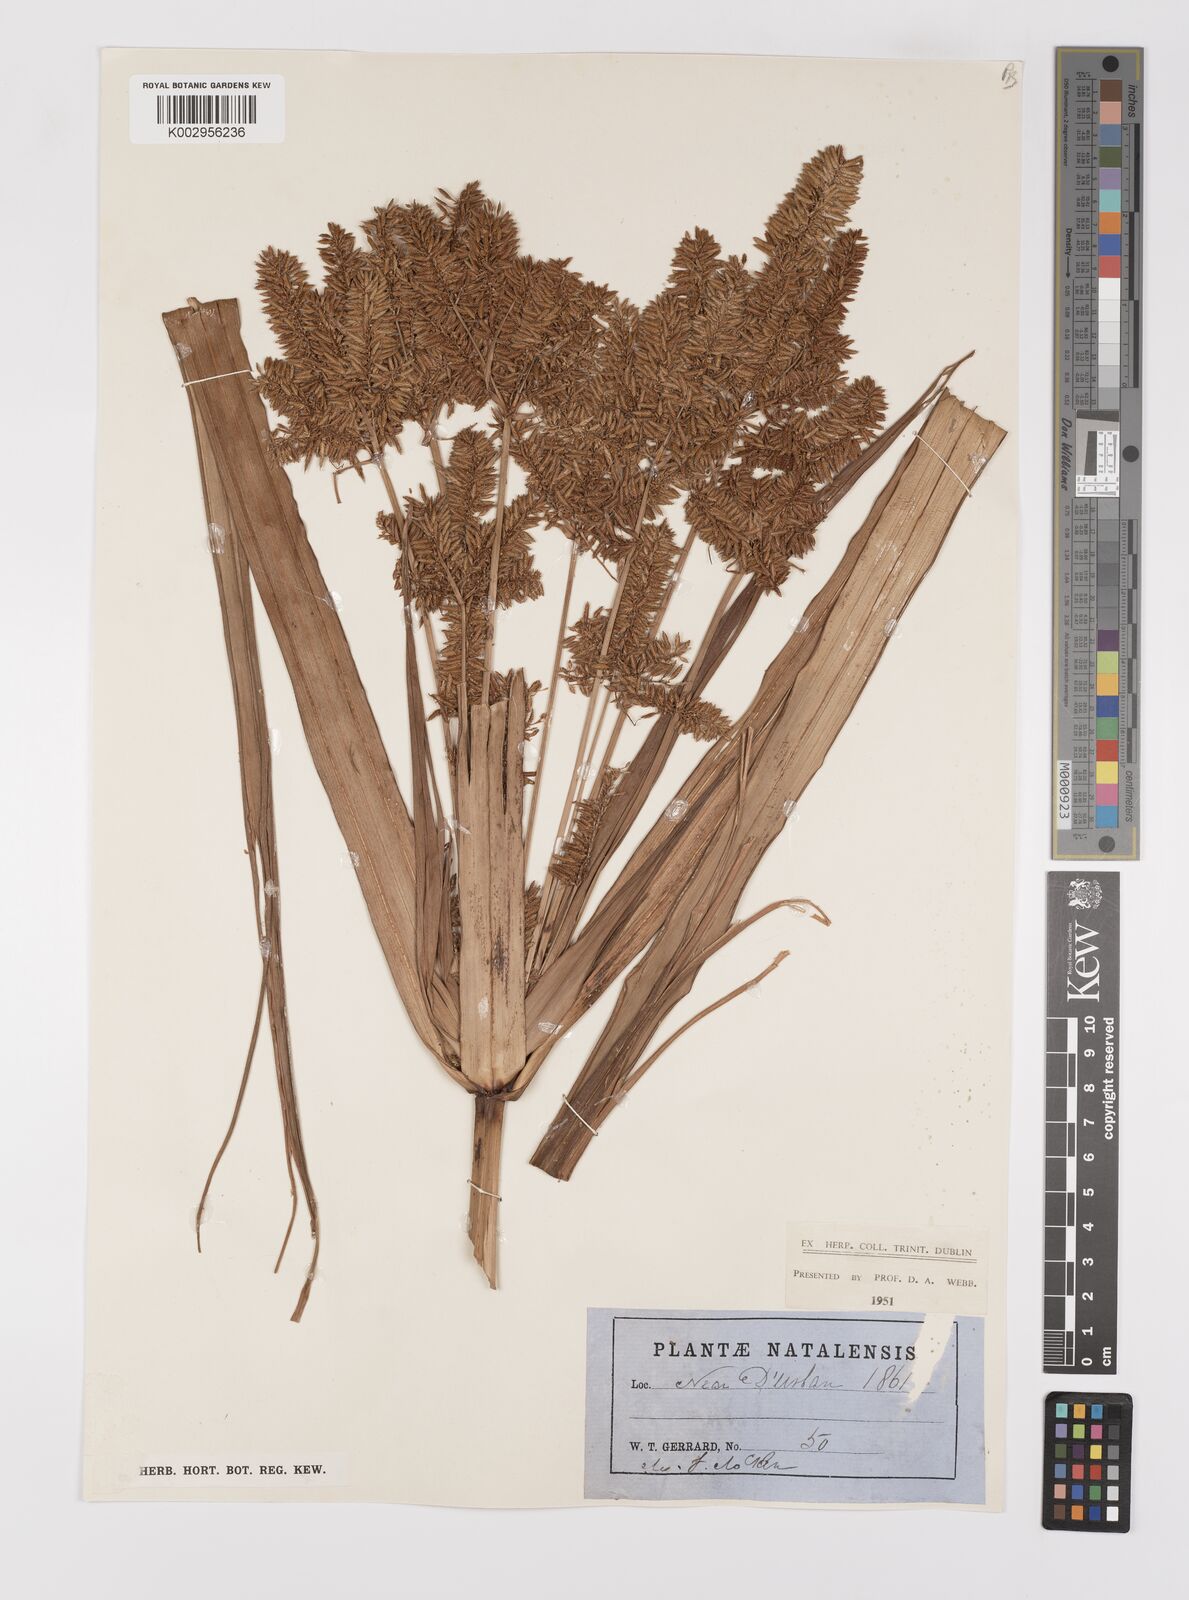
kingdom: Plantae
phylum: Tracheophyta
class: Liliopsida
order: Poales
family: Cyperaceae
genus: Cyperus
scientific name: Cyperus dives
